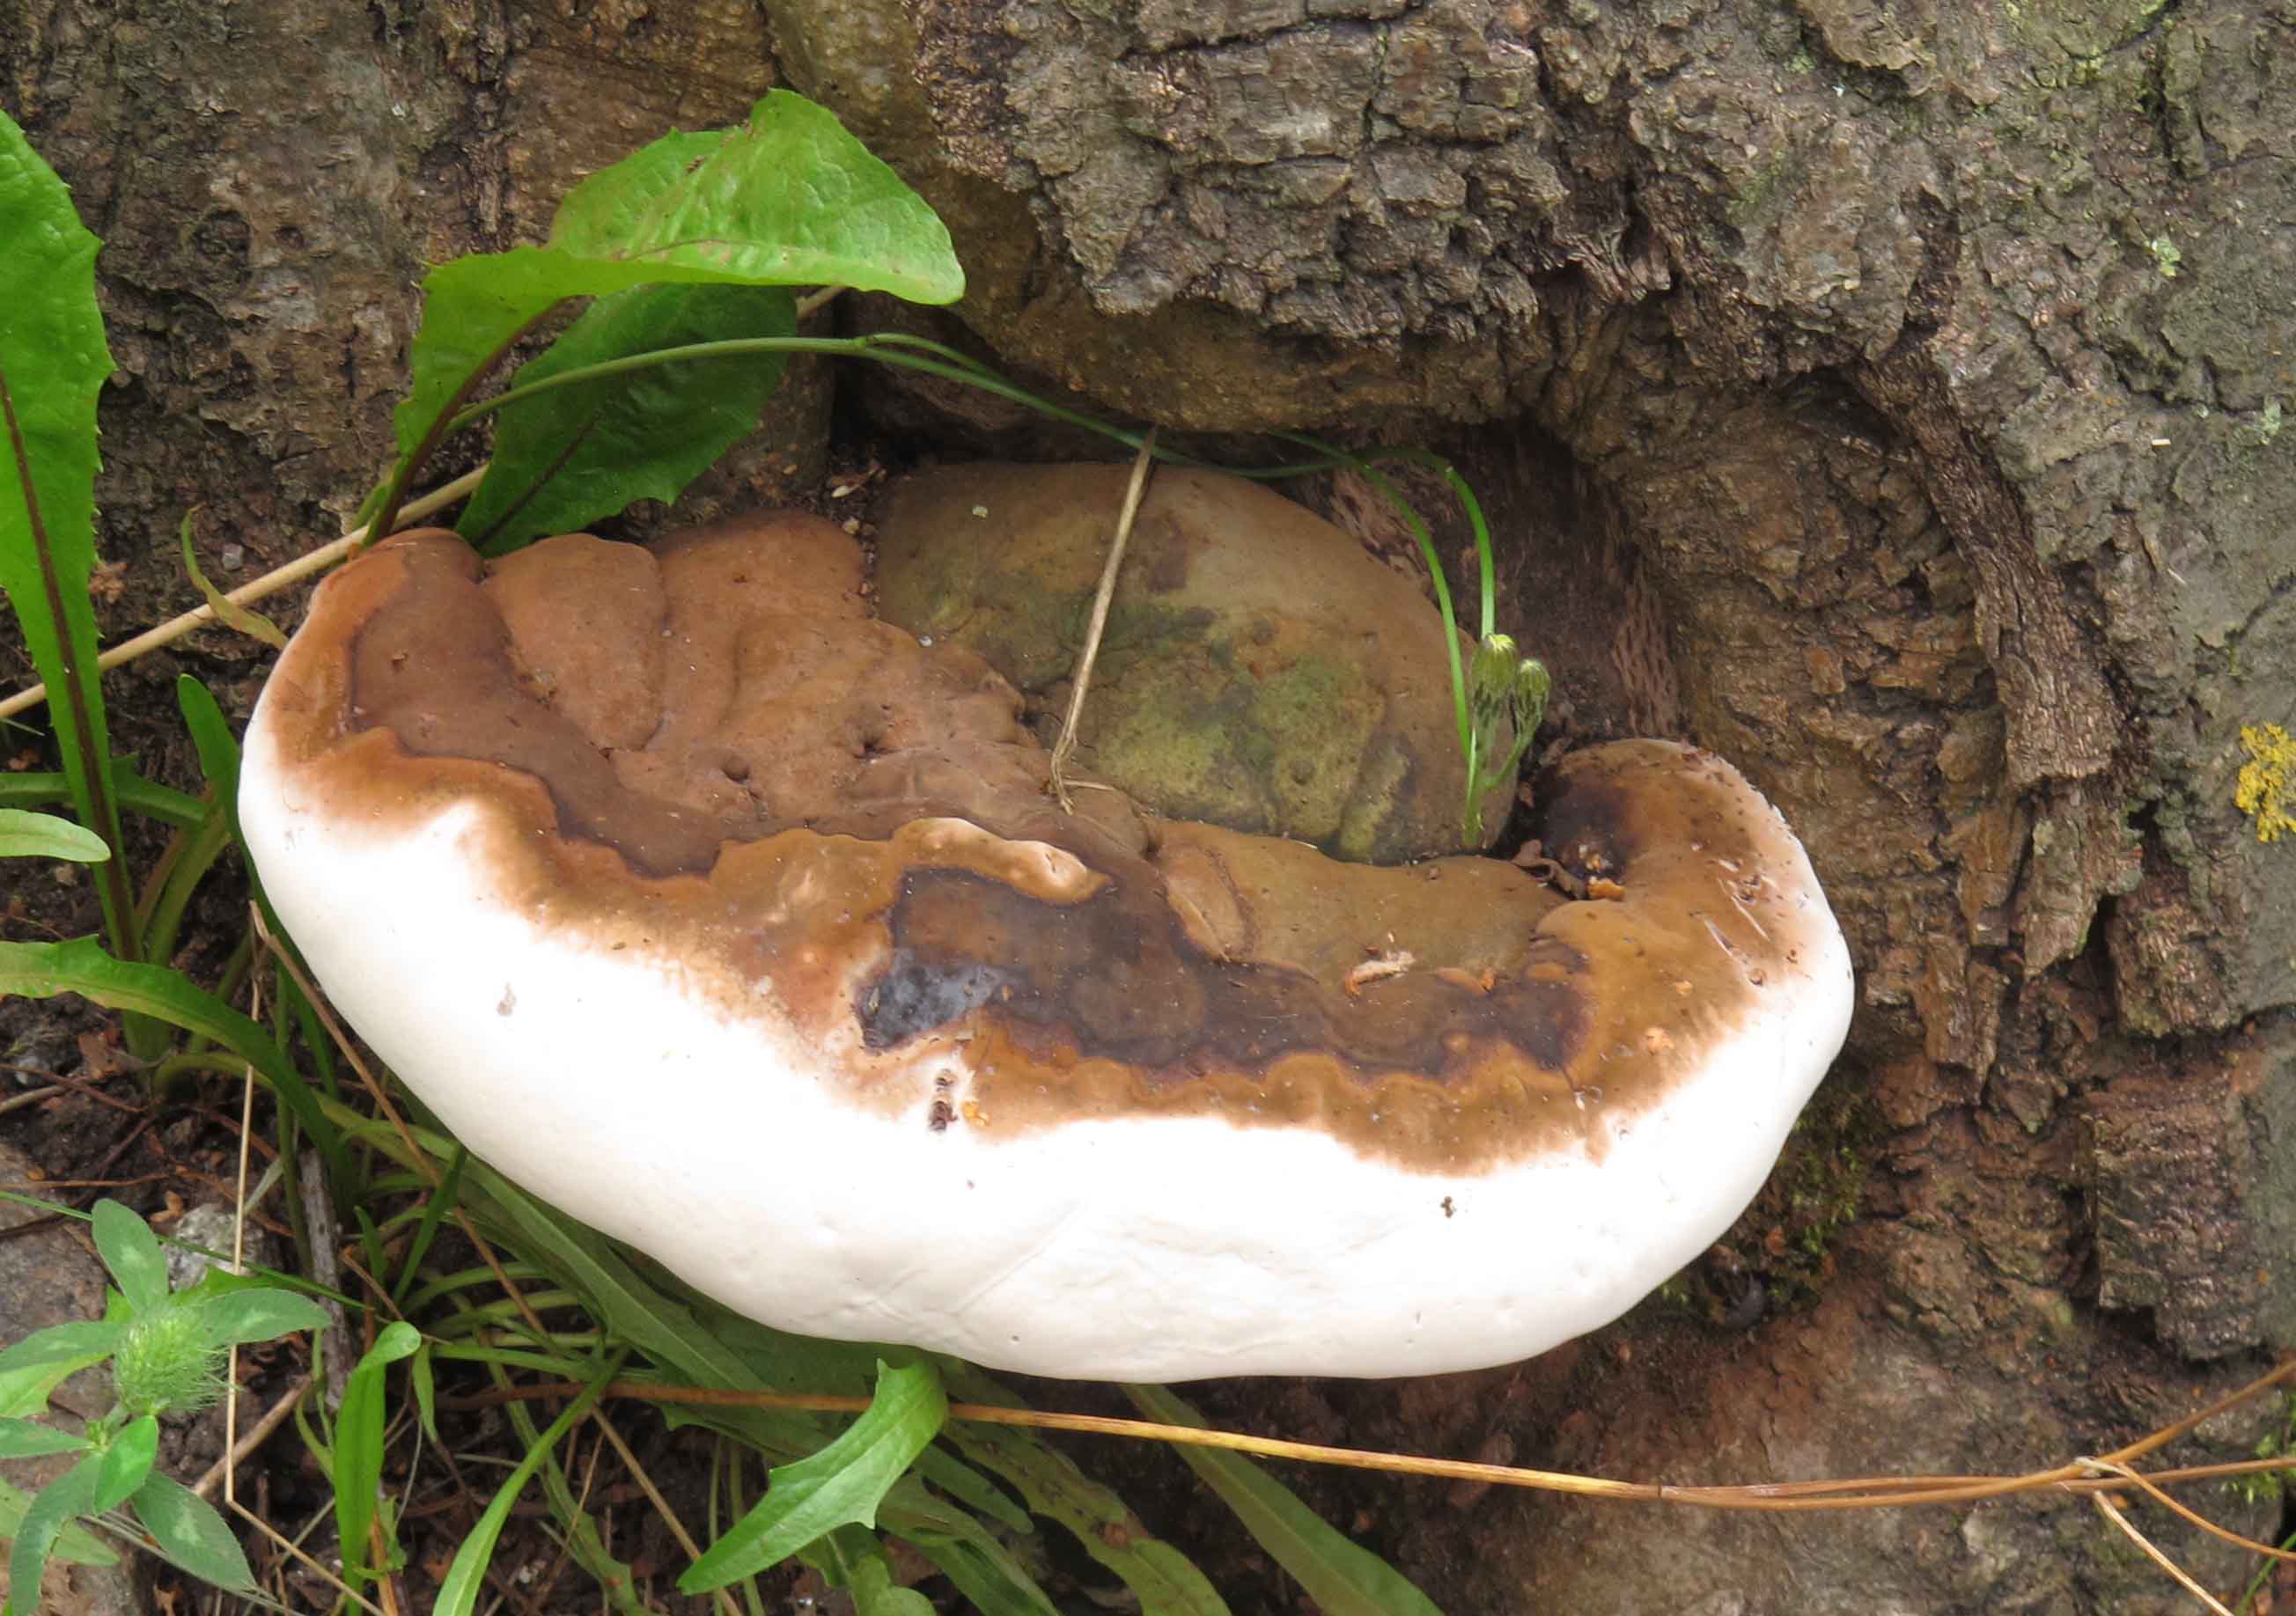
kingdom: Fungi
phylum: Basidiomycota
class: Agaricomycetes
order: Polyporales
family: Polyporaceae
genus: Ganoderma
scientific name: Ganoderma pfeifferi
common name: kobberrød lakporesvamp
